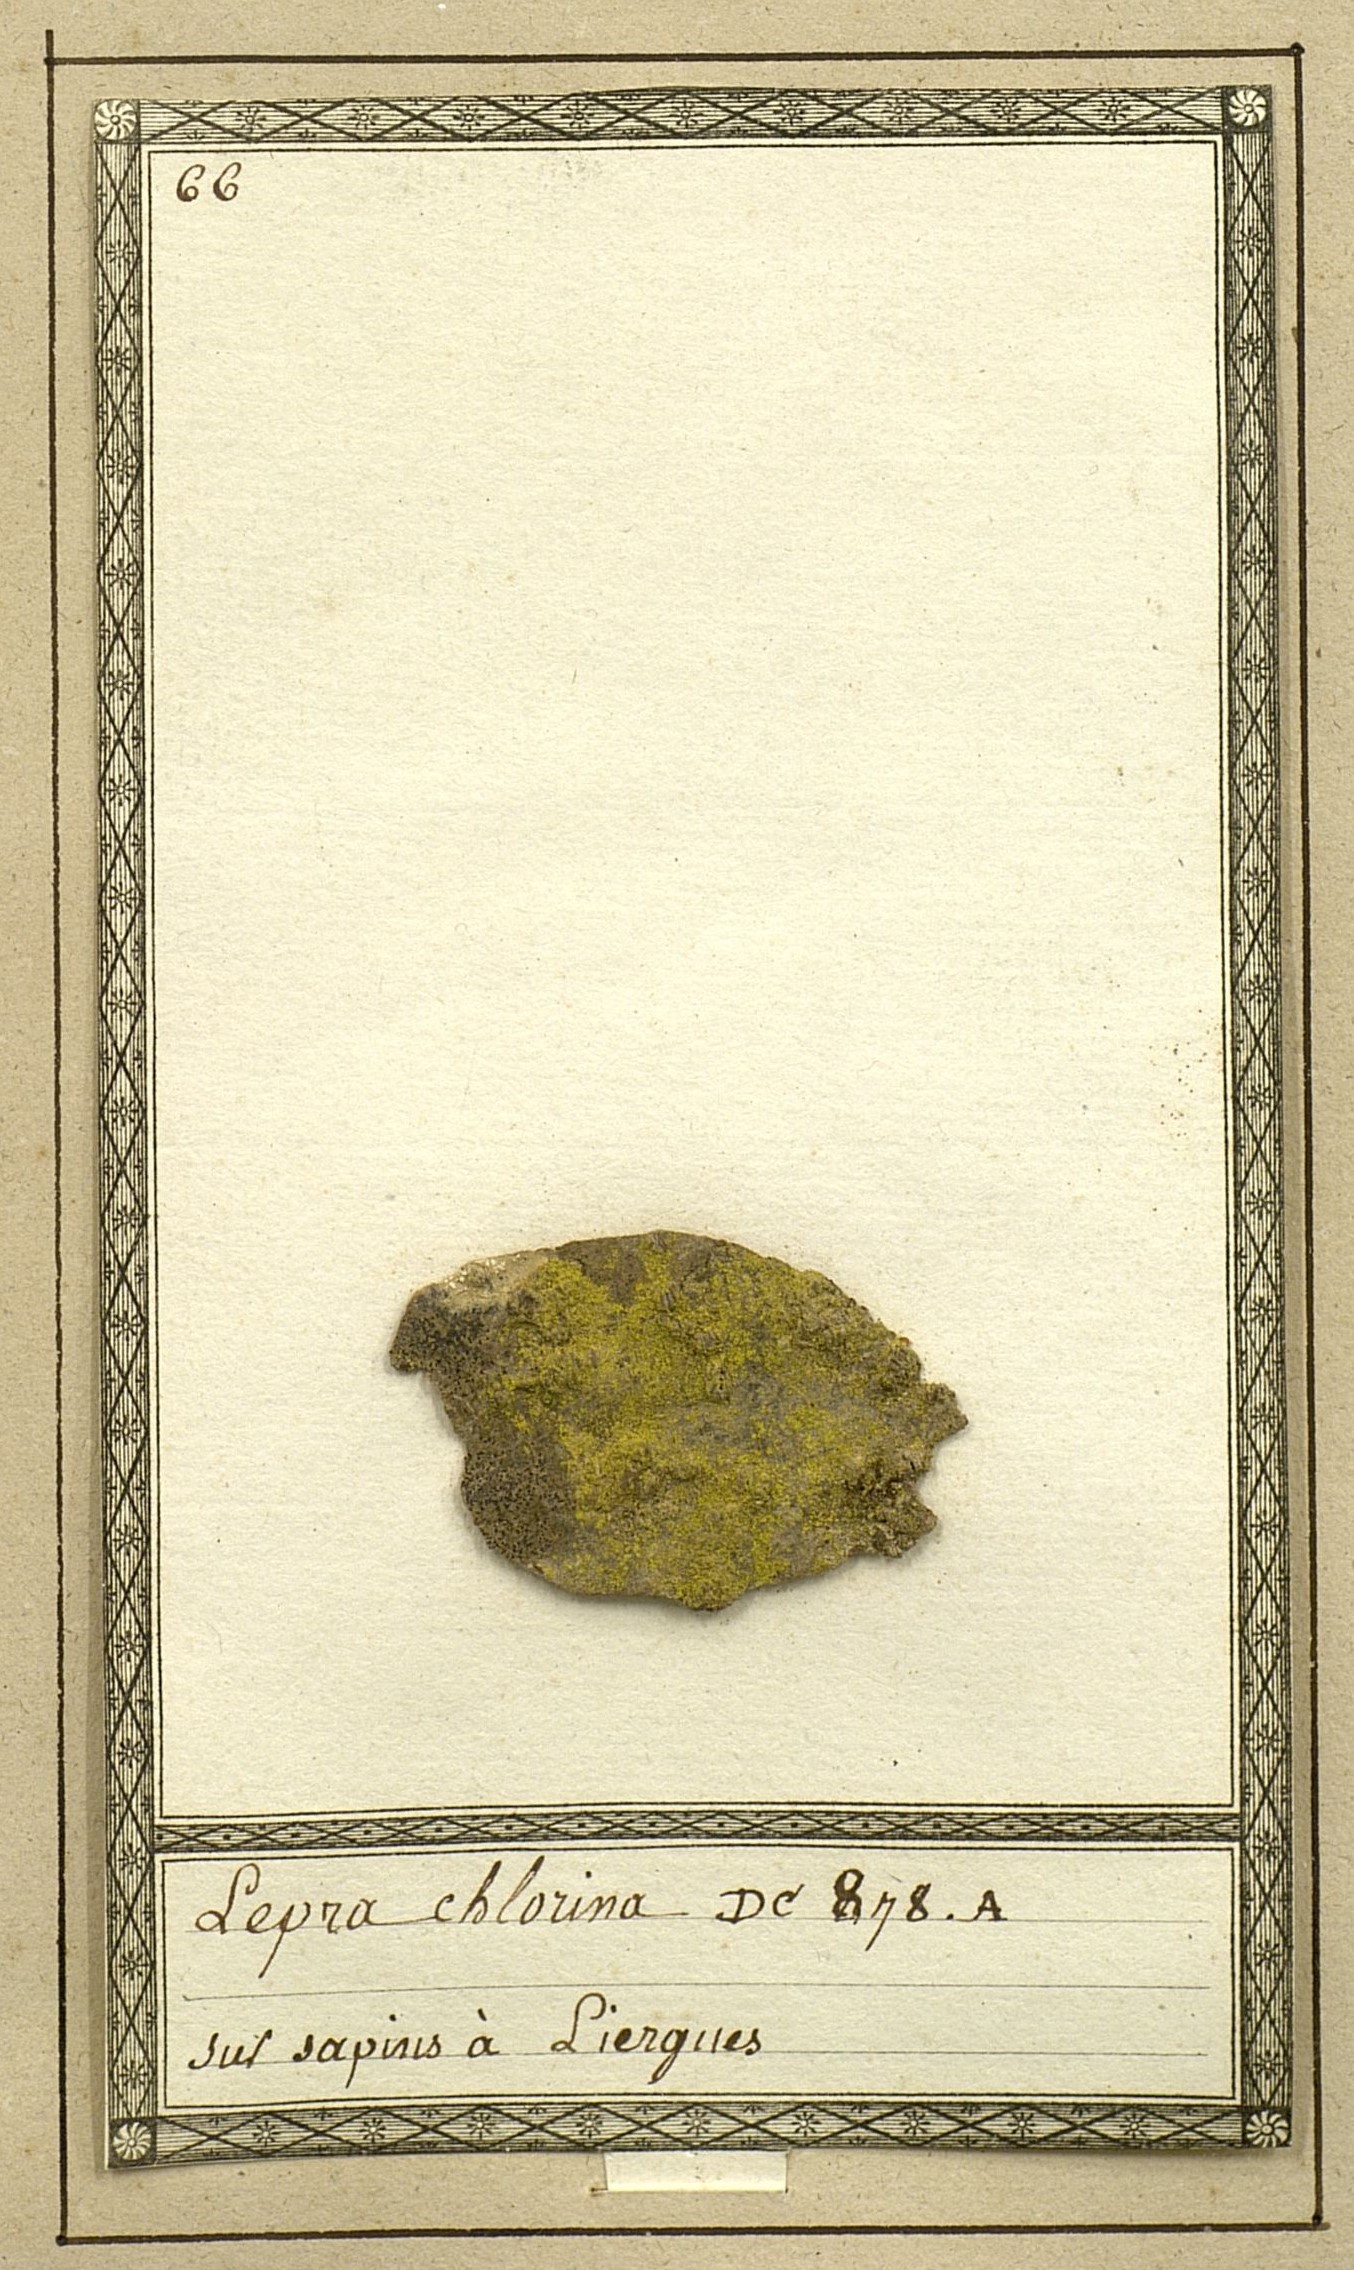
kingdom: Fungi
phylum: Ascomycota
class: Arthoniomycetes
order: Arthoniales
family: Chrysotrichaceae
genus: Chrysothrix
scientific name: Chrysothrix chlorina
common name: Chlorine dust lichen
